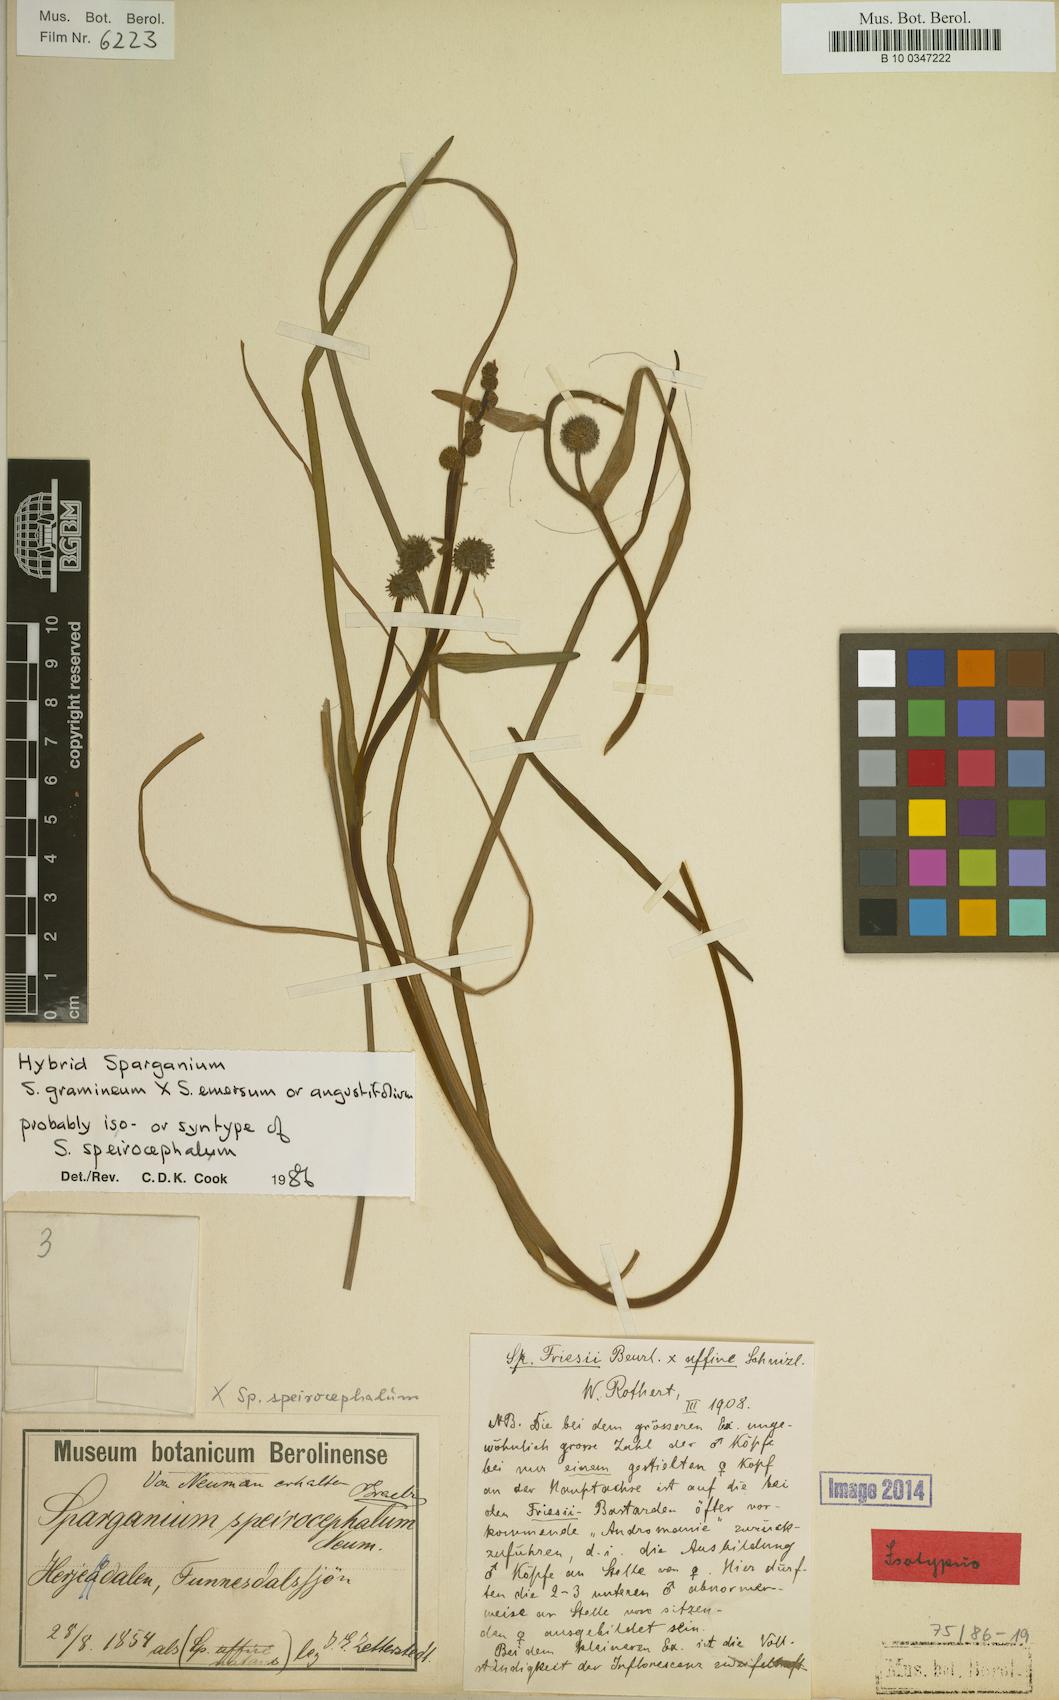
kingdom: Plantae
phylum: Tracheophyta
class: Liliopsida
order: Poales
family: Typhaceae
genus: Sparganium
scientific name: Sparganium speirocephalum
